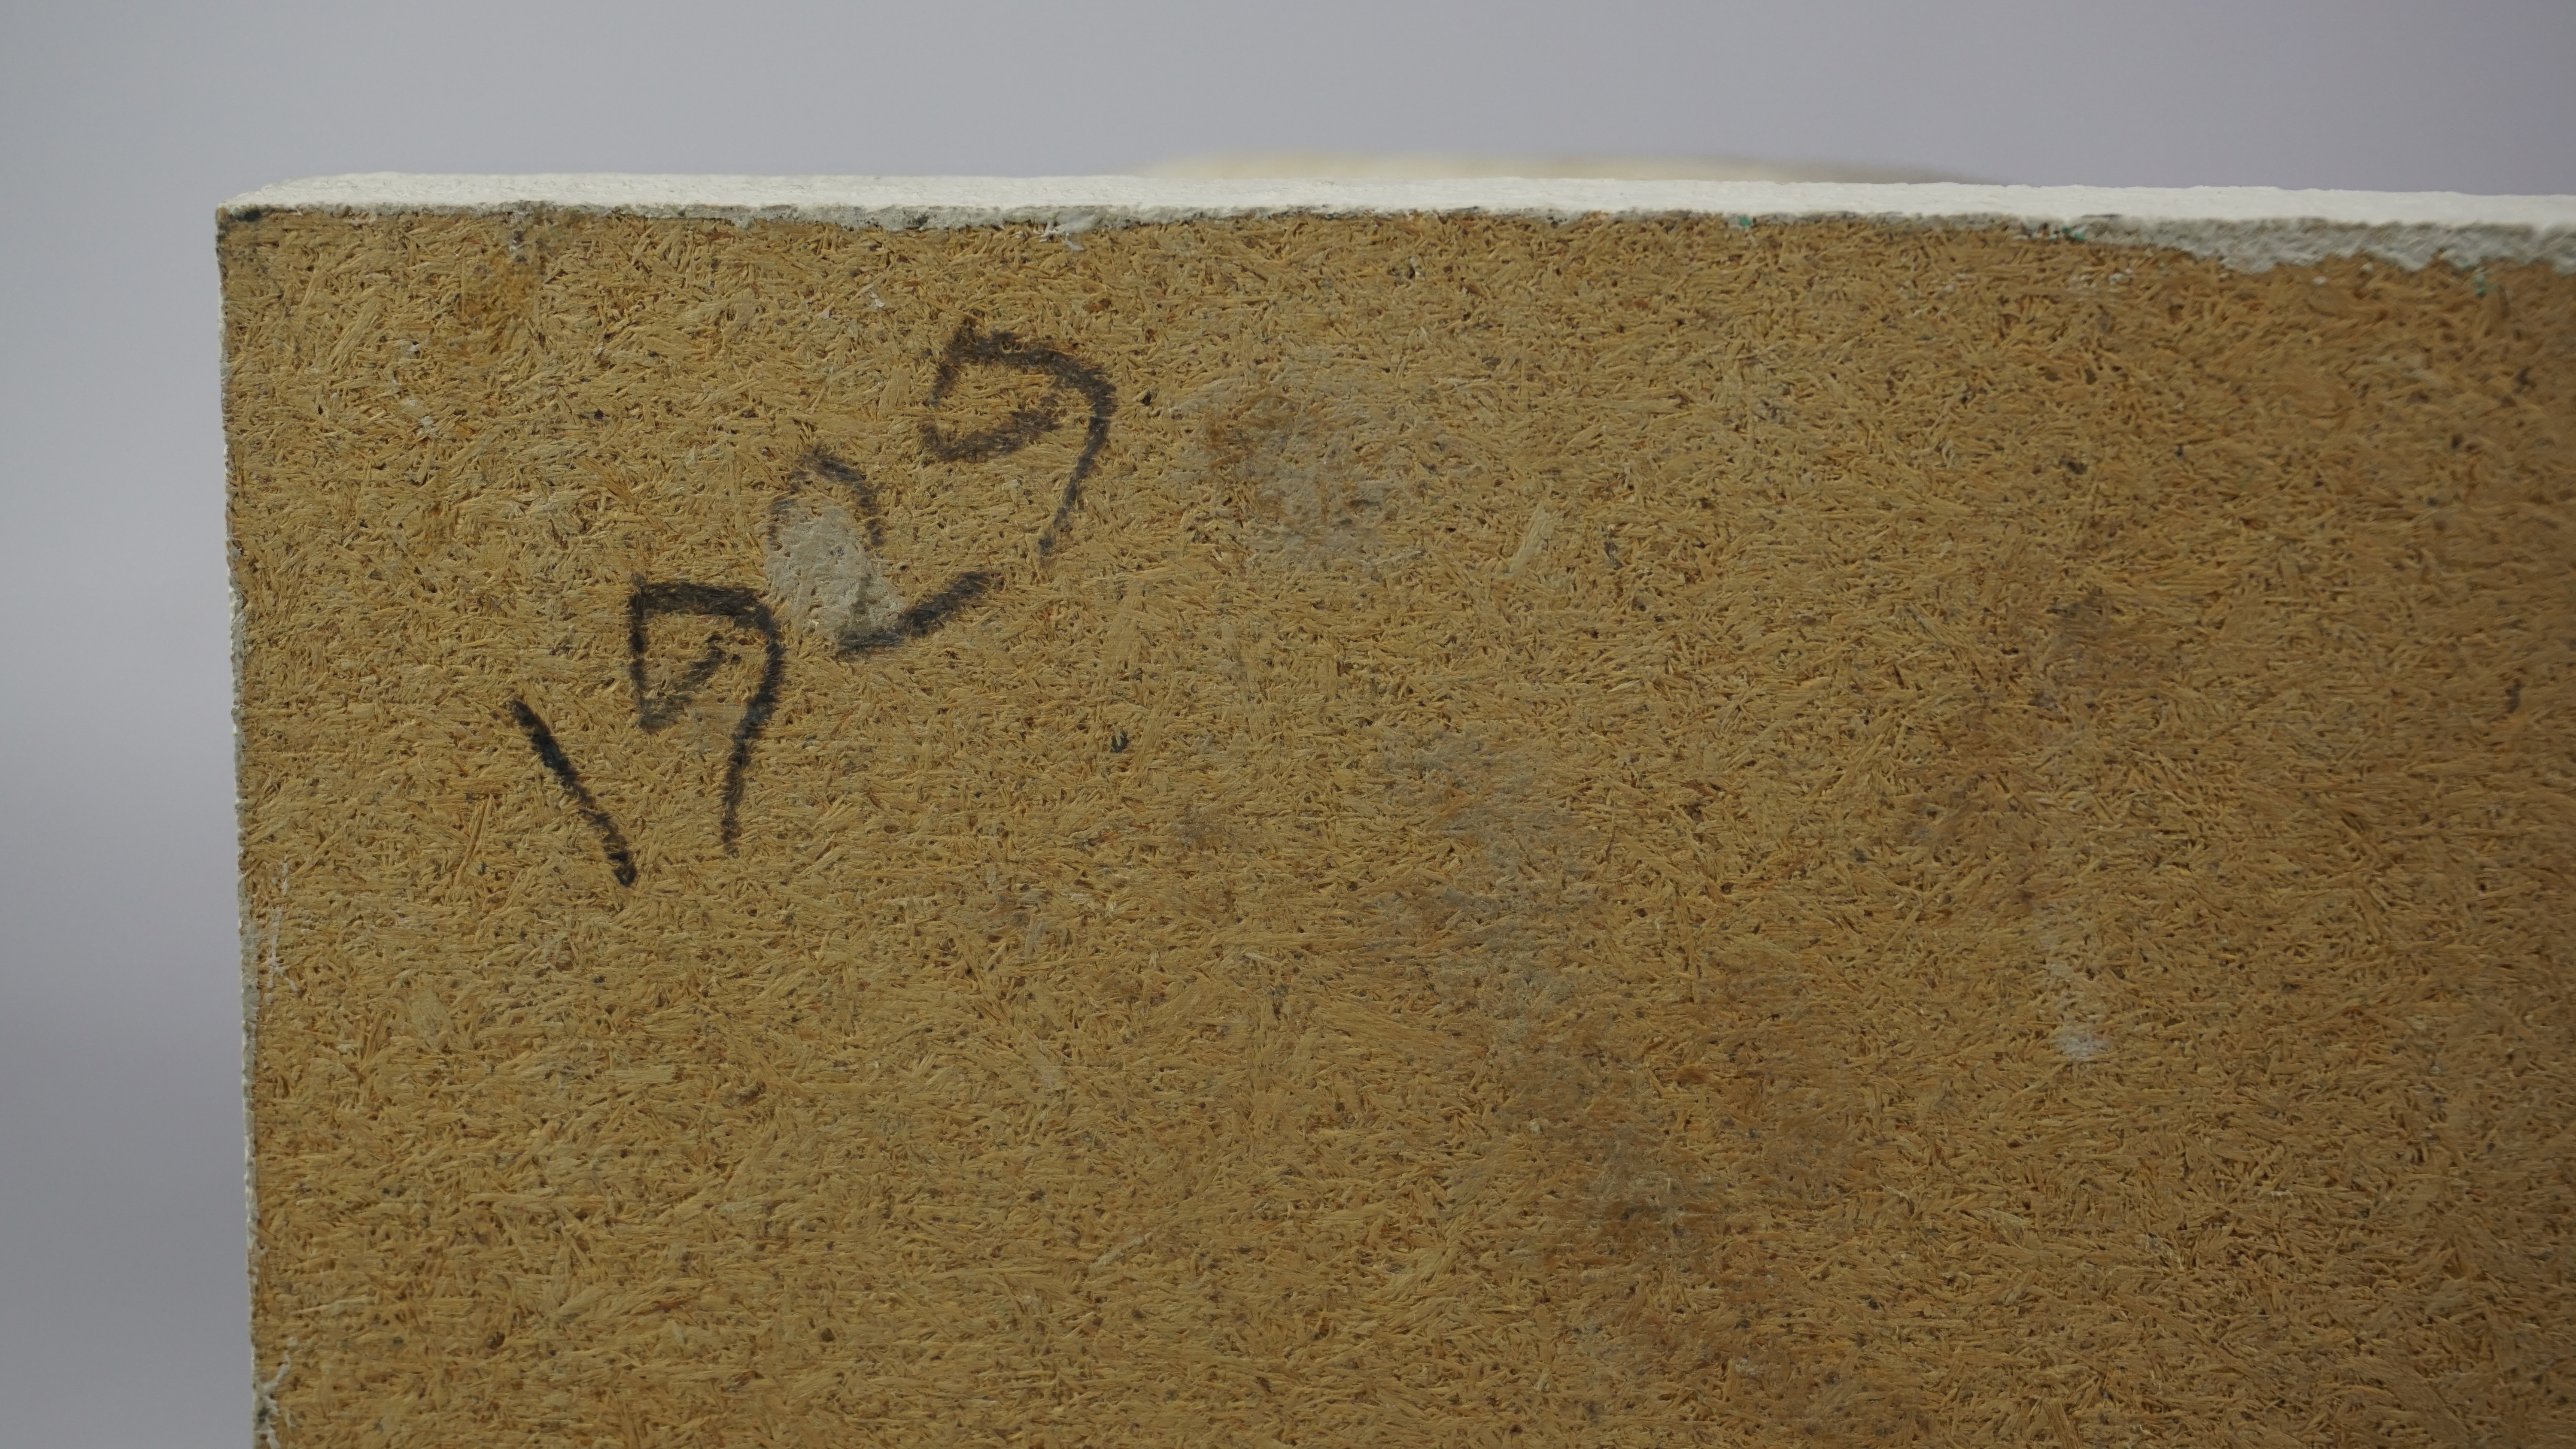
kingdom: Animalia
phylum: Chordata
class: Aves
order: Anseriformes
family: Anatidae
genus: Anas
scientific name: Anas acuta
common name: Northern pintail
